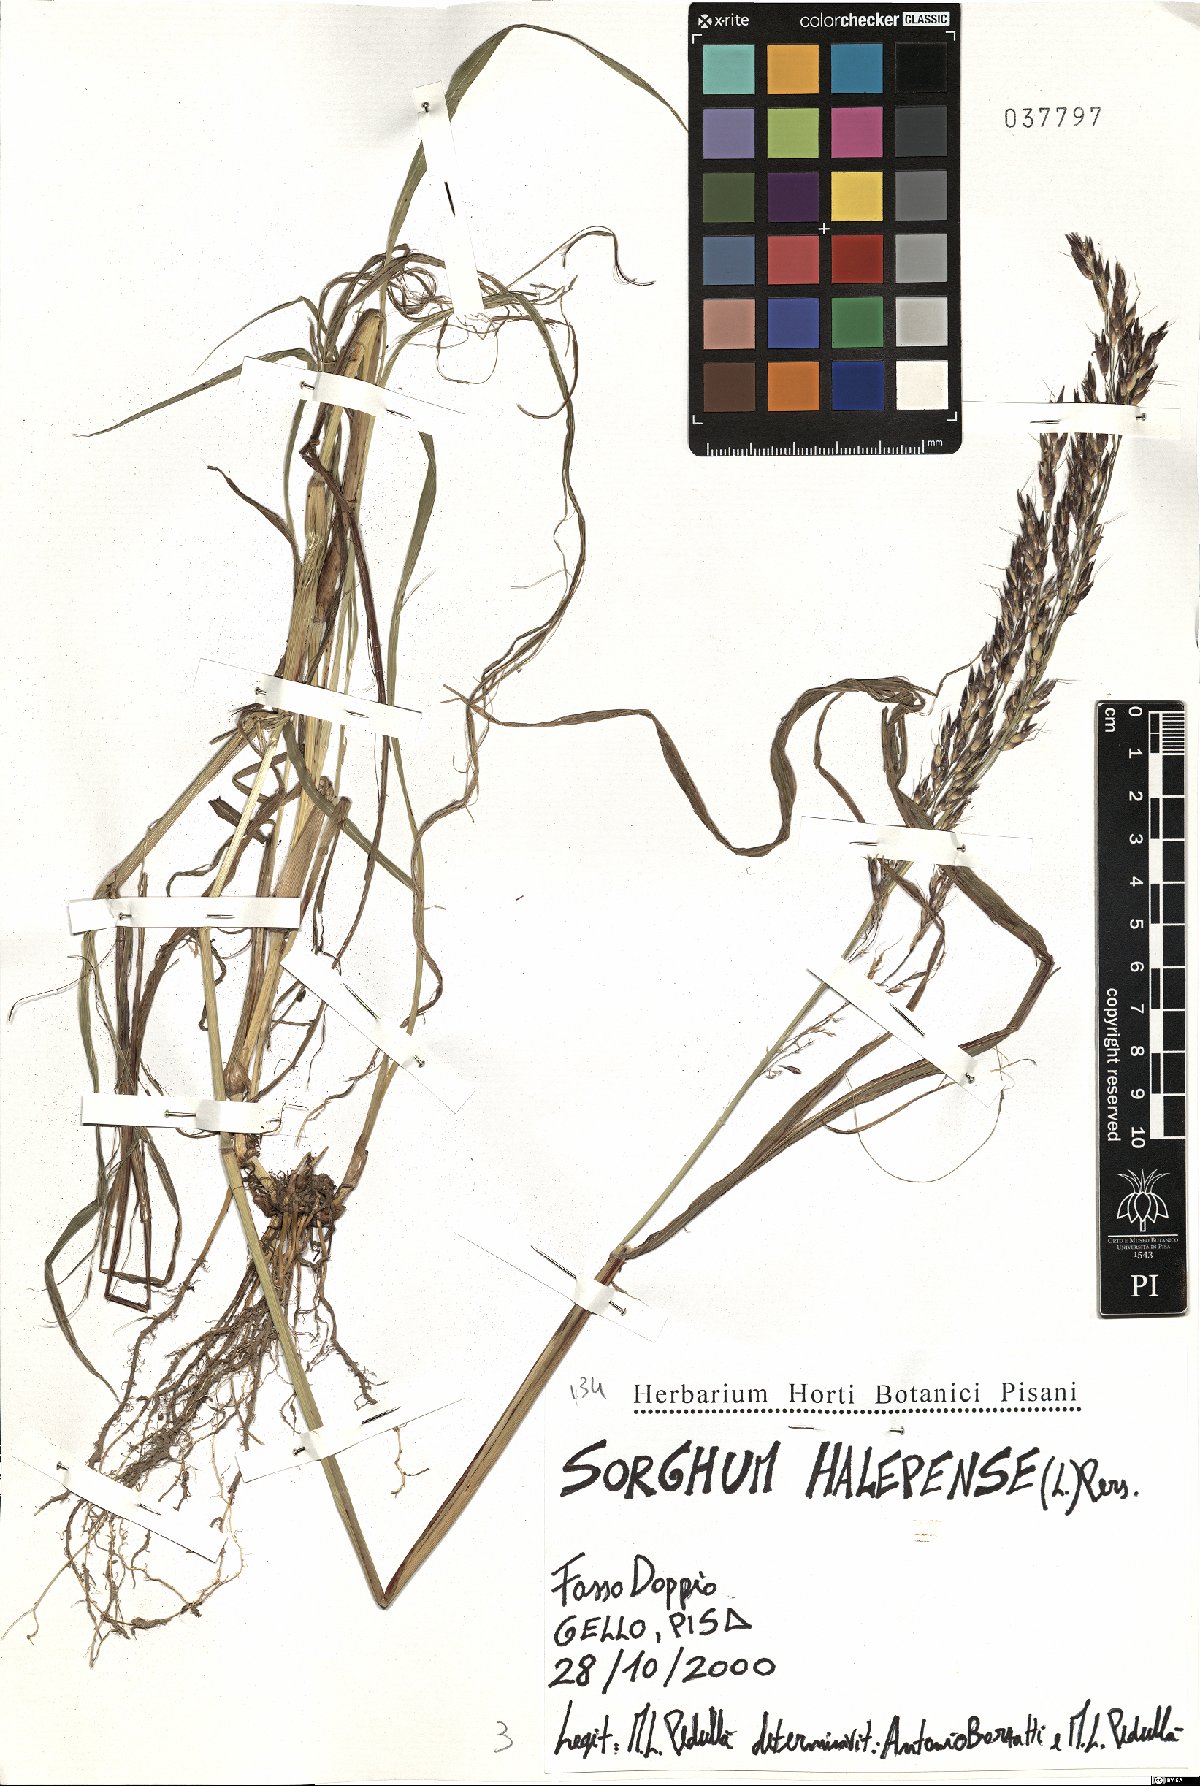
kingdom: Plantae
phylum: Tracheophyta
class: Liliopsida
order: Poales
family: Poaceae
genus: Sorghum
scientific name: Sorghum halepense
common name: Johnson-grass
